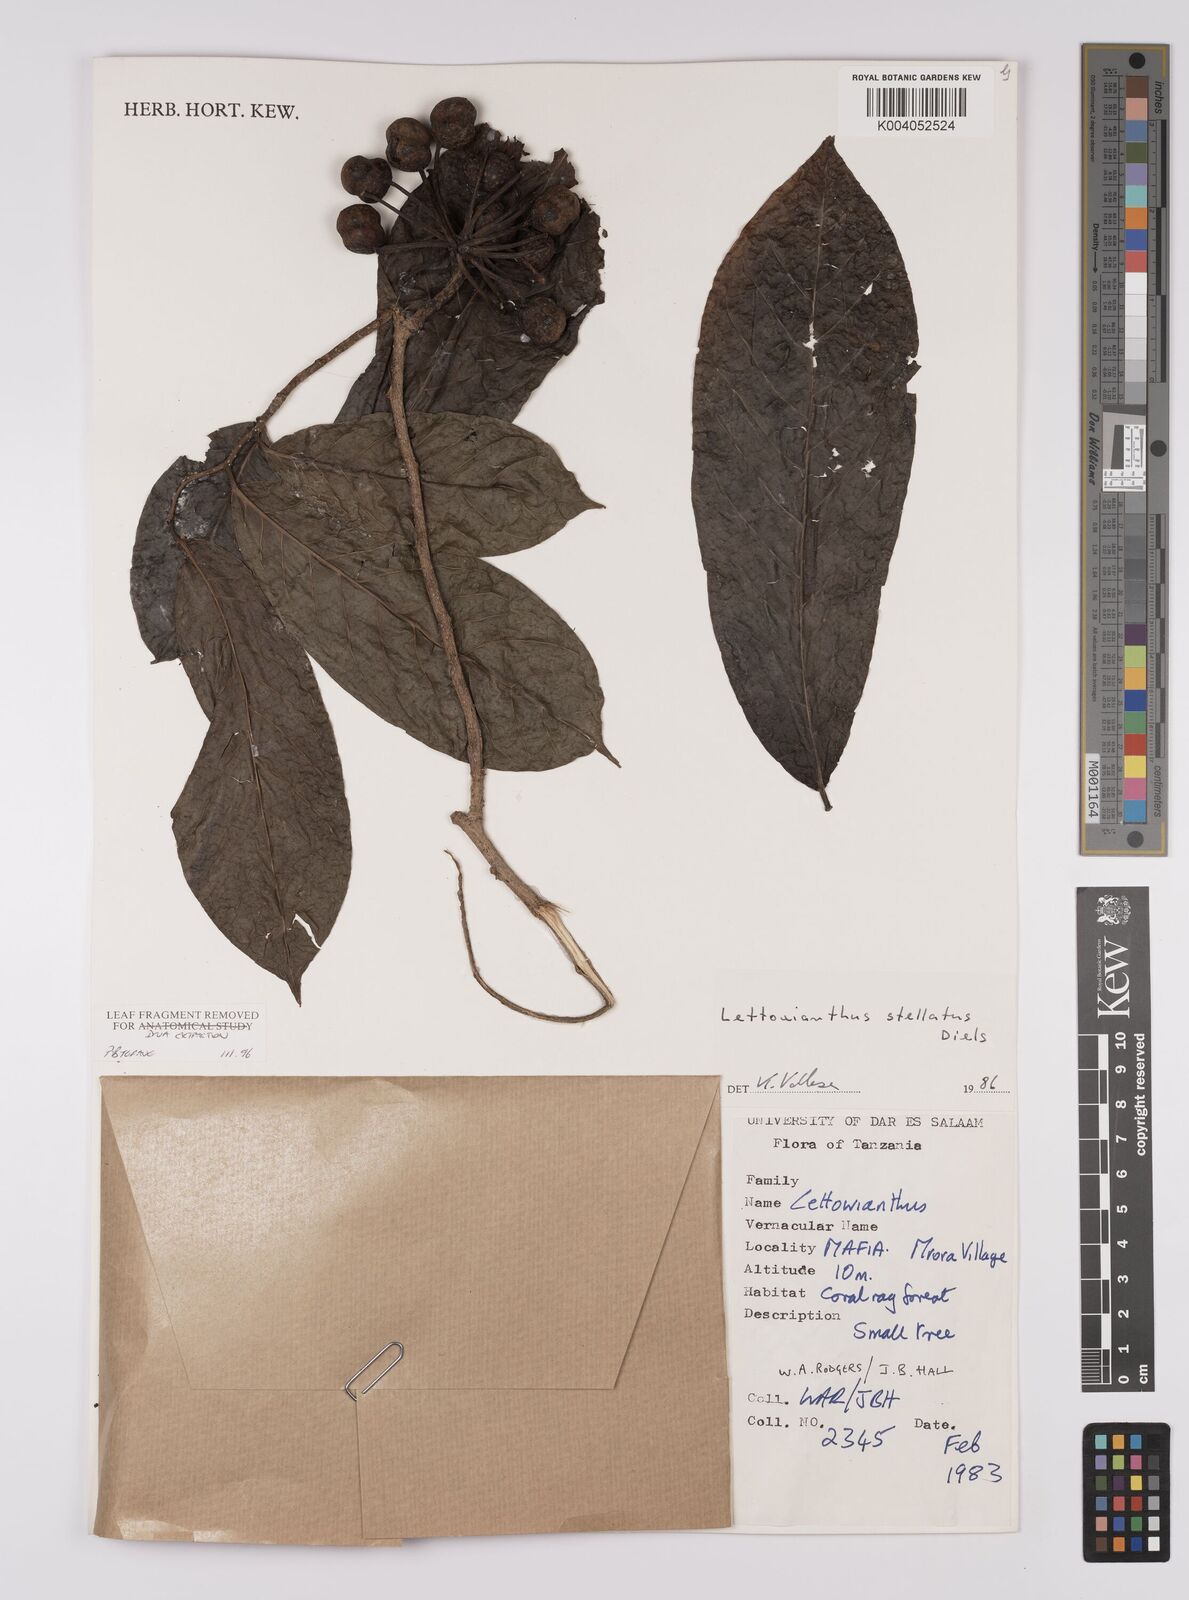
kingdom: Plantae
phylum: Tracheophyta
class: Magnoliopsida
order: Magnoliales
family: Annonaceae
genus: Lettowianthus
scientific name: Lettowianthus stellatus
